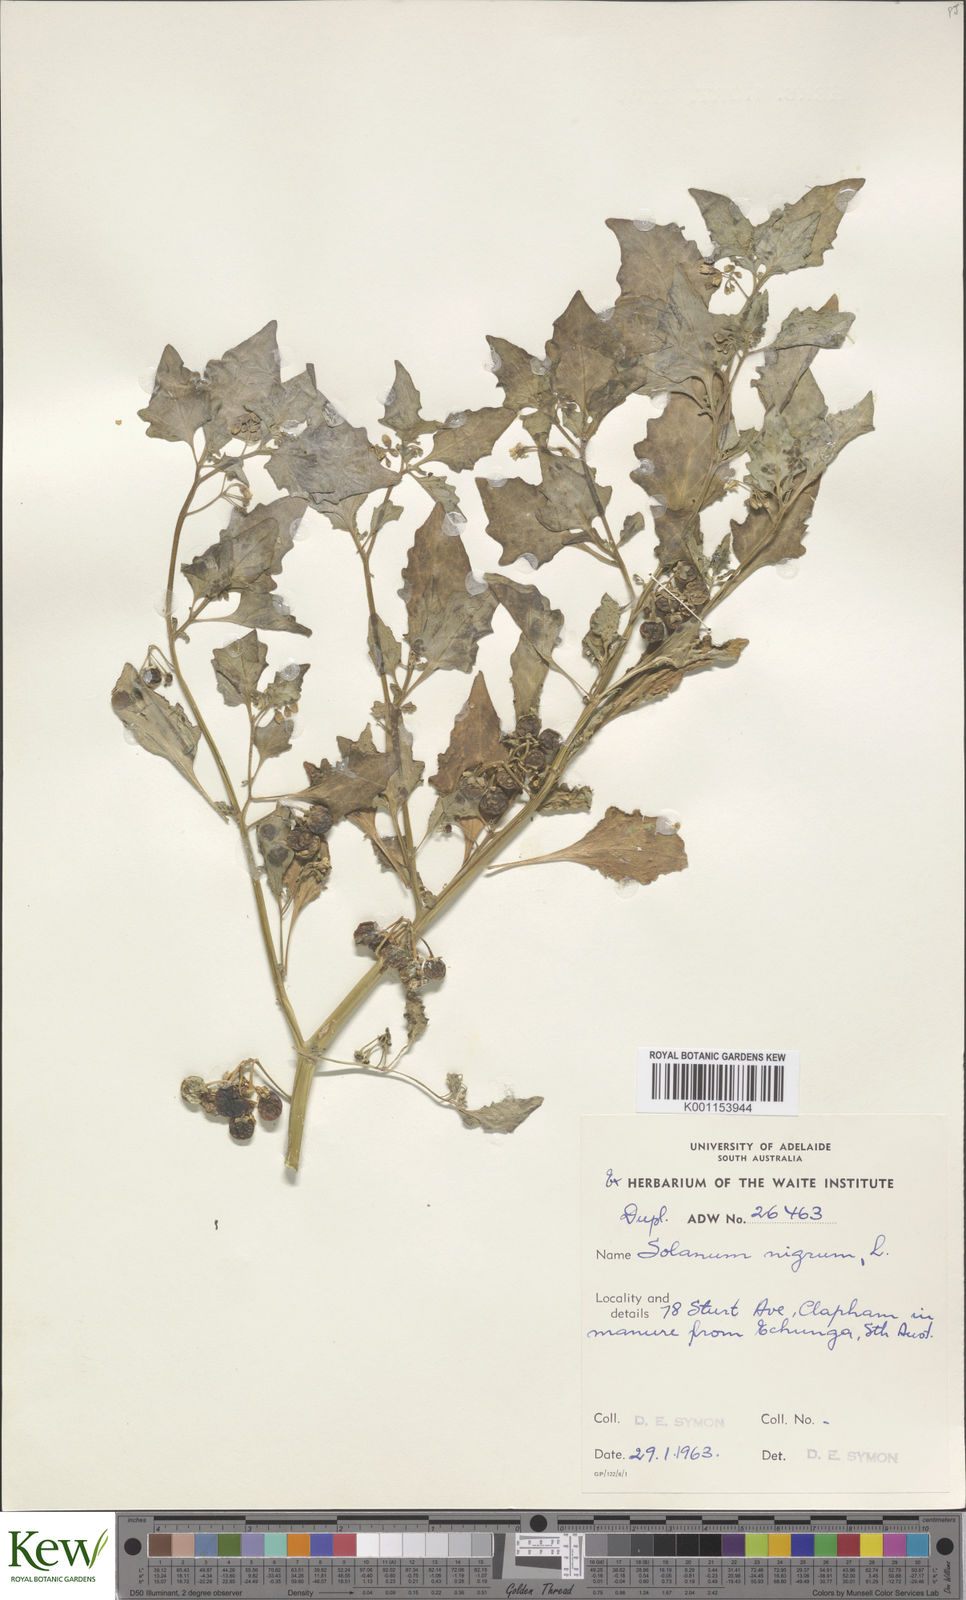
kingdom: Plantae
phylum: Tracheophyta
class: Magnoliopsida
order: Solanales
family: Solanaceae
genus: Solanum
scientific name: Solanum nigrum
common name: Black nightshade
